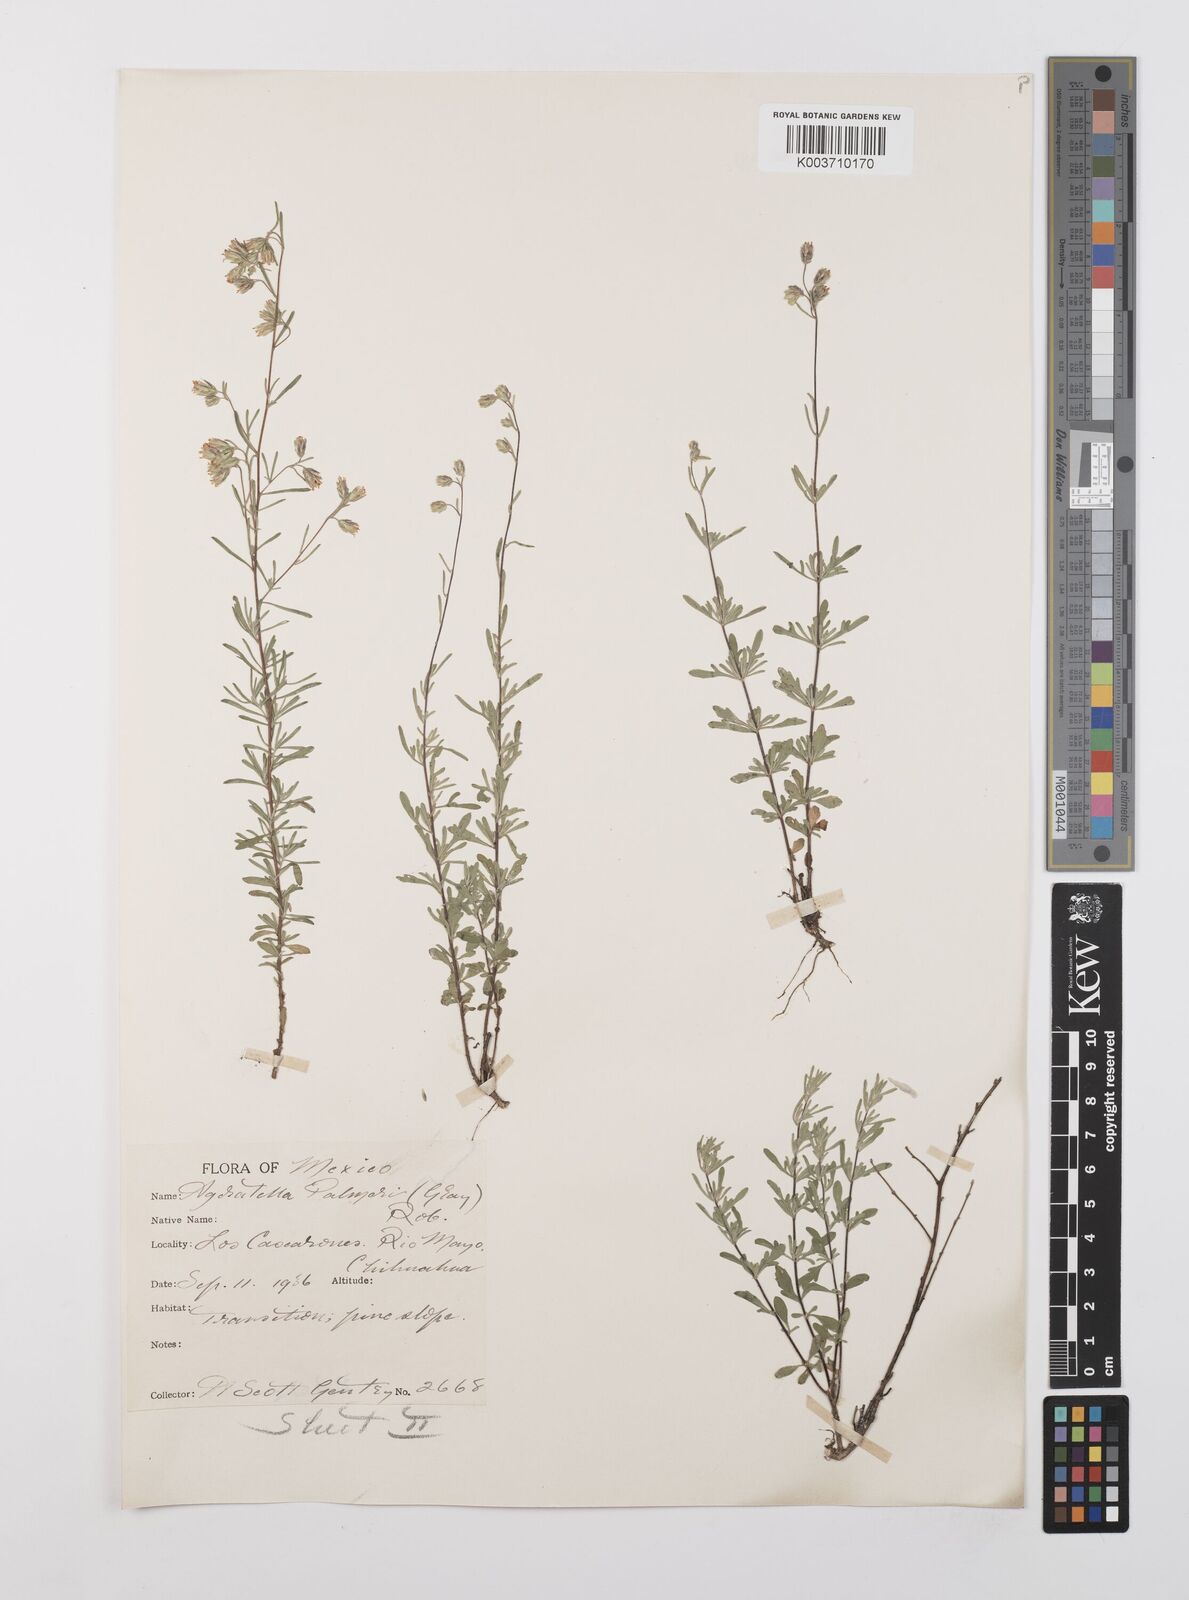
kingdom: Plantae
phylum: Tracheophyta
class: Magnoliopsida
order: Asterales
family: Asteraceae
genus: Ageratella
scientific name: Ageratella microphylla
